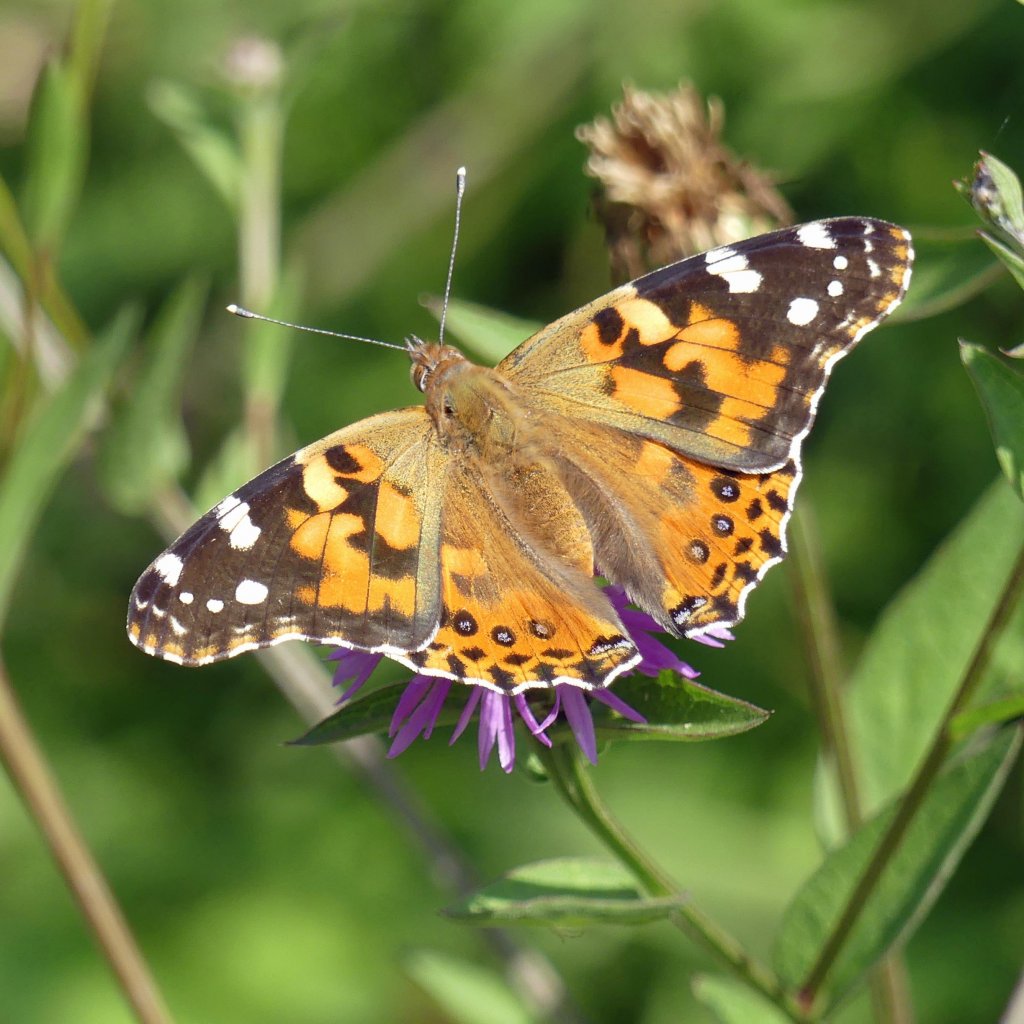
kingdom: Animalia
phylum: Arthropoda
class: Insecta
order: Lepidoptera
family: Nymphalidae
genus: Vanessa
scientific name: Vanessa cardui
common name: Painted Lady
